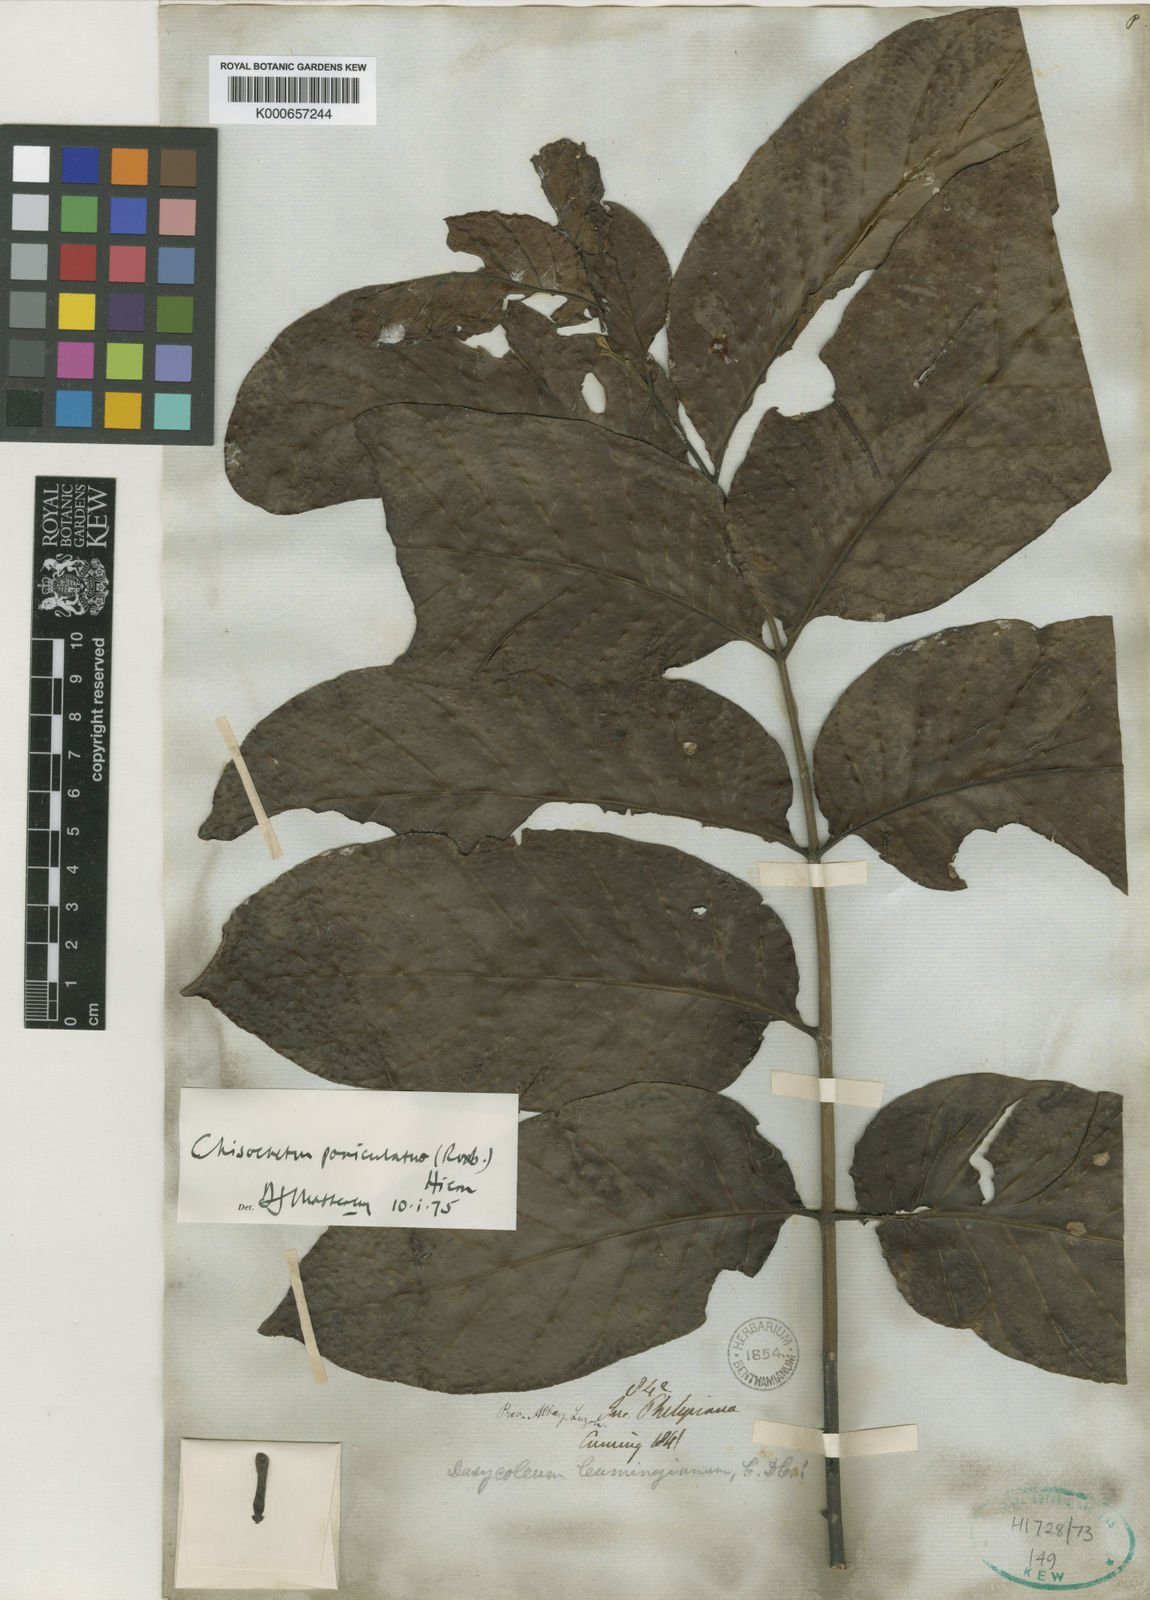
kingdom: Plantae
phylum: Tracheophyta
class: Magnoliopsida
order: Sapindales
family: Meliaceae
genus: Chisocheton
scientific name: Chisocheton cumingianus
